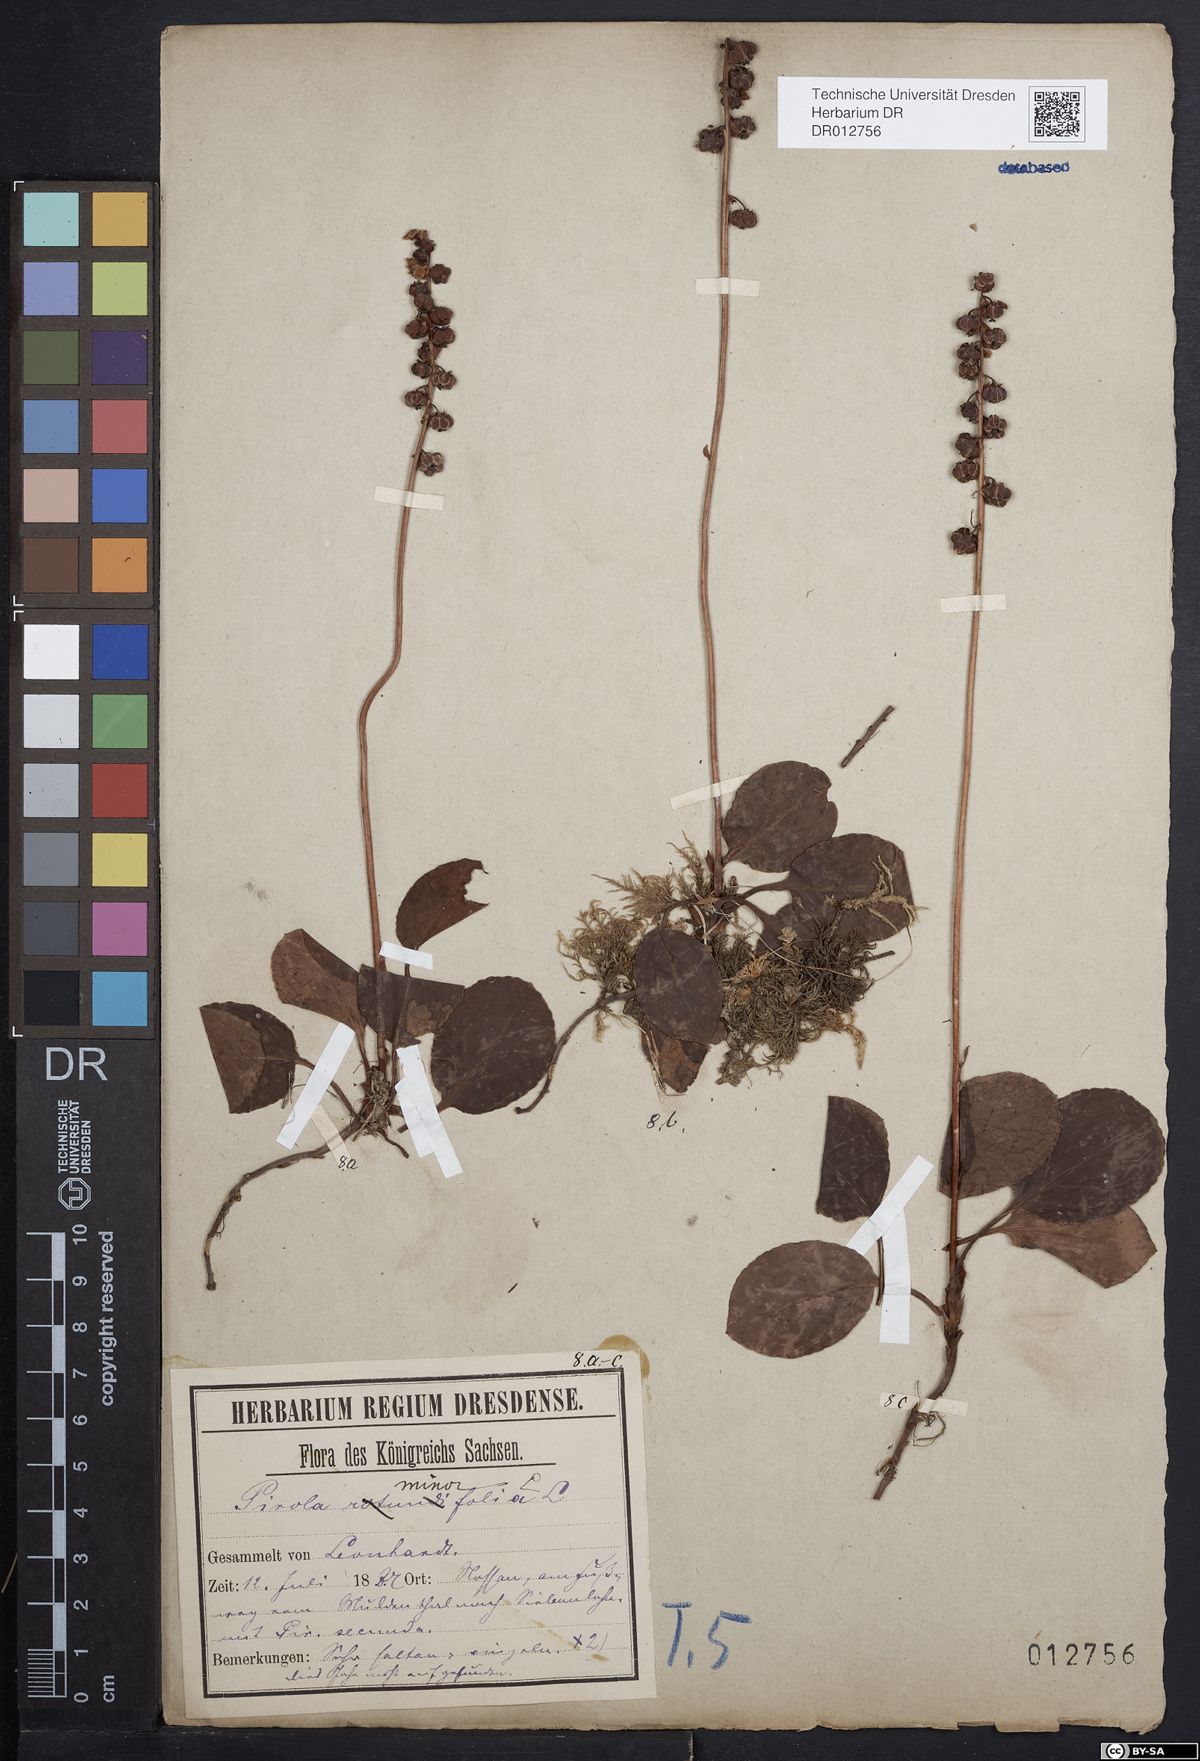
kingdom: Plantae
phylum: Tracheophyta
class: Magnoliopsida
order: Ericales
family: Ericaceae
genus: Pyrola
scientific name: Pyrola minor
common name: Common wintergreen
